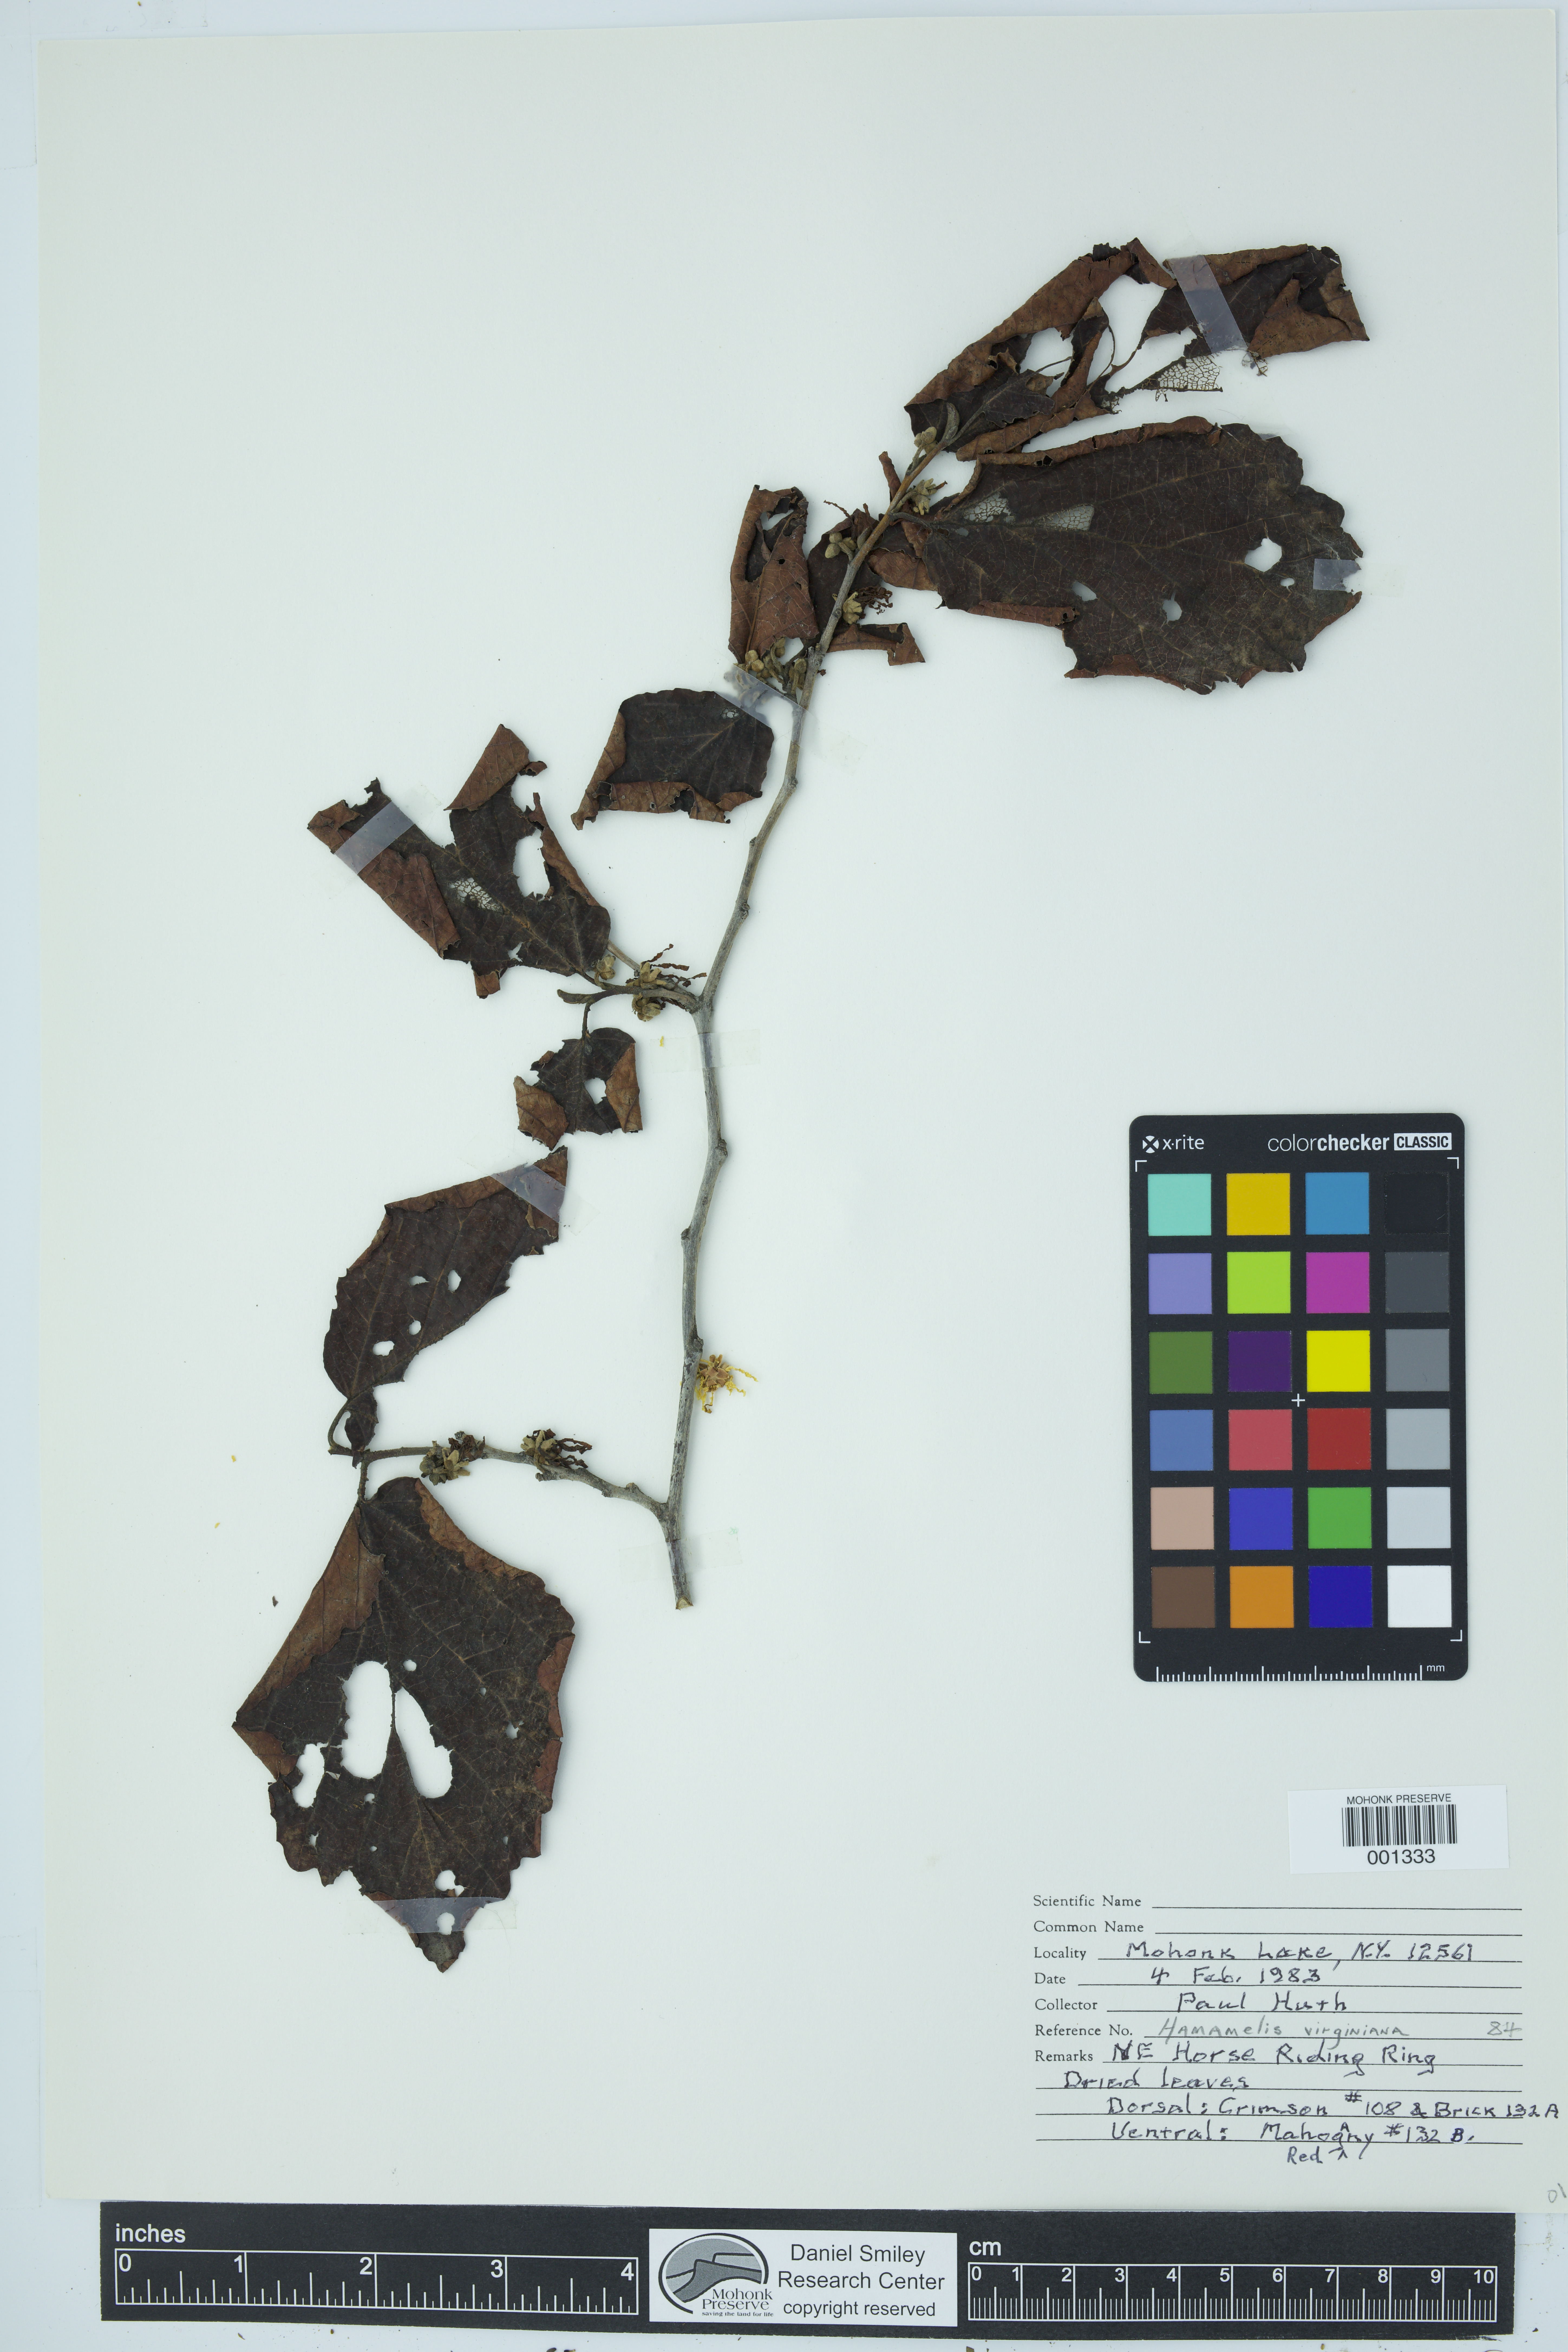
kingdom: Plantae
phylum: Tracheophyta
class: Magnoliopsida
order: Saxifragales
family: Hamamelidaceae
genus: Hamamelis
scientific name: Hamamelis virginiana
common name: Witch-hazel
